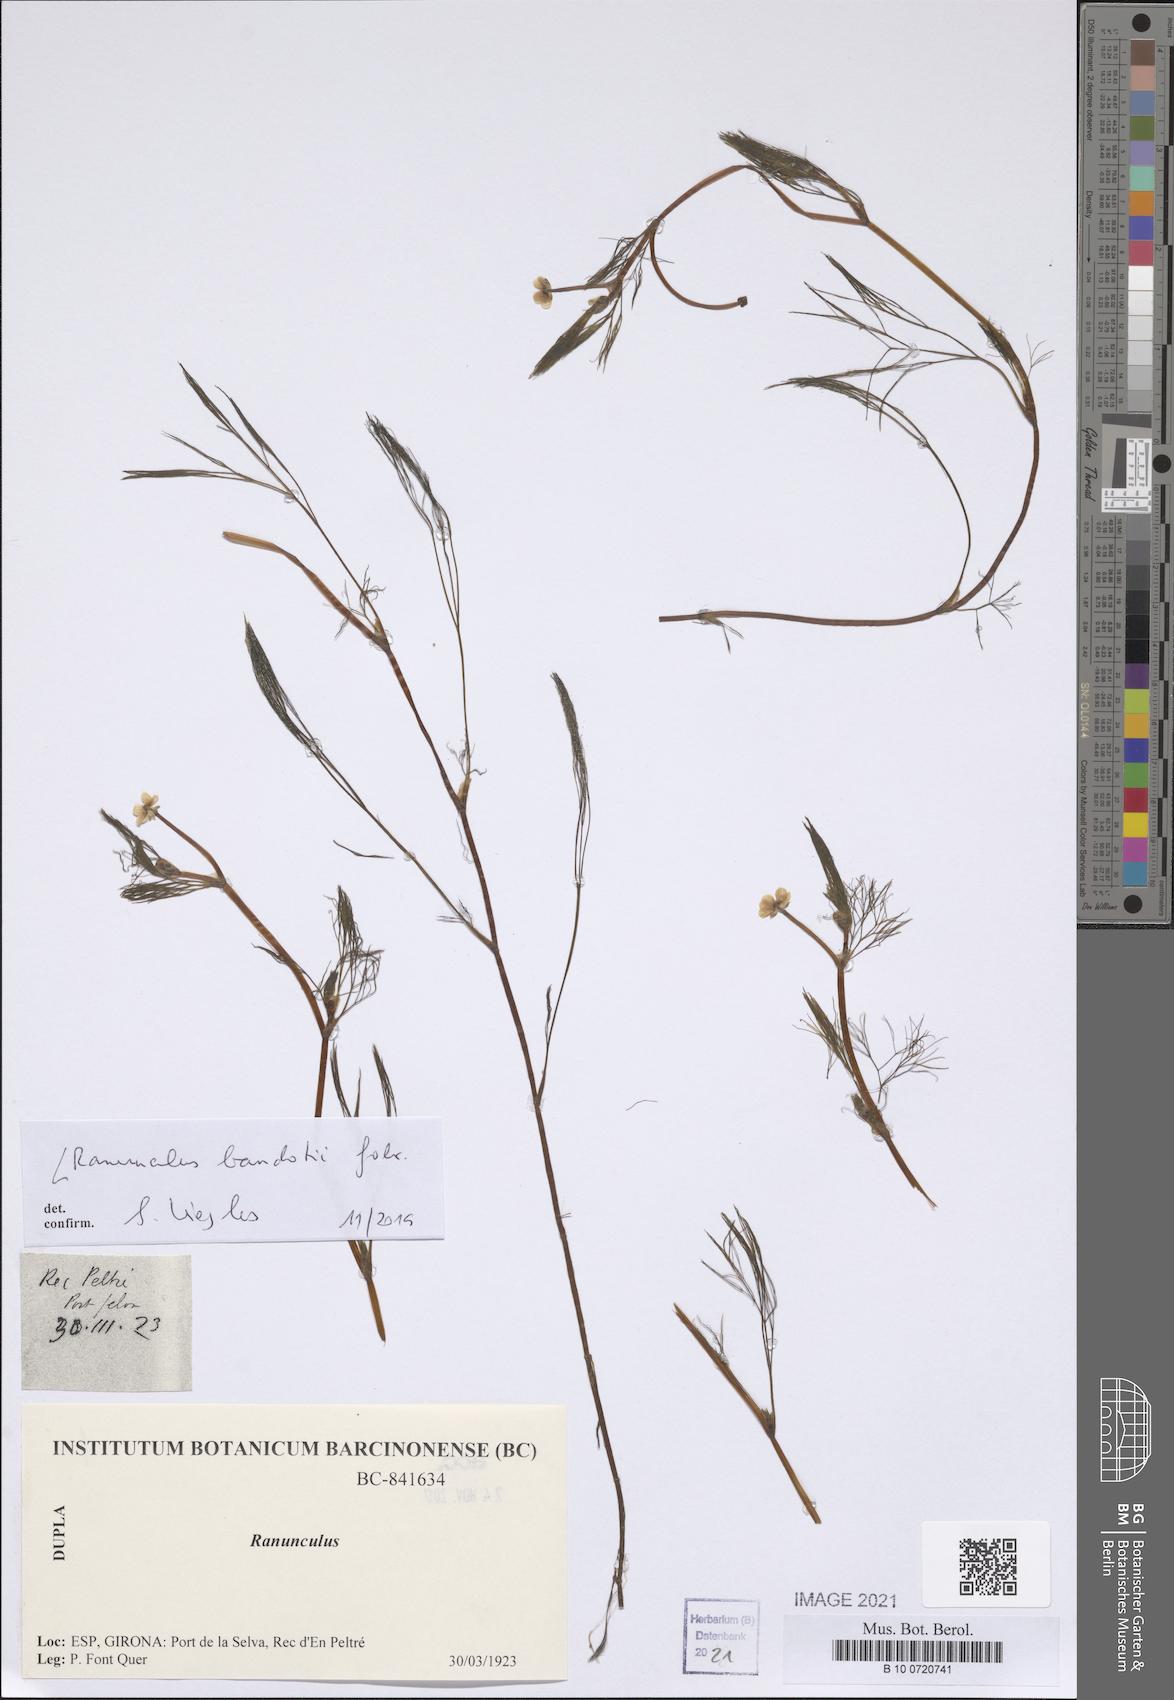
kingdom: Plantae
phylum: Tracheophyta
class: Magnoliopsida
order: Ranunculales
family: Ranunculaceae
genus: Ranunculus
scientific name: Ranunculus peltatus
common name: Pond water-crowfoot
